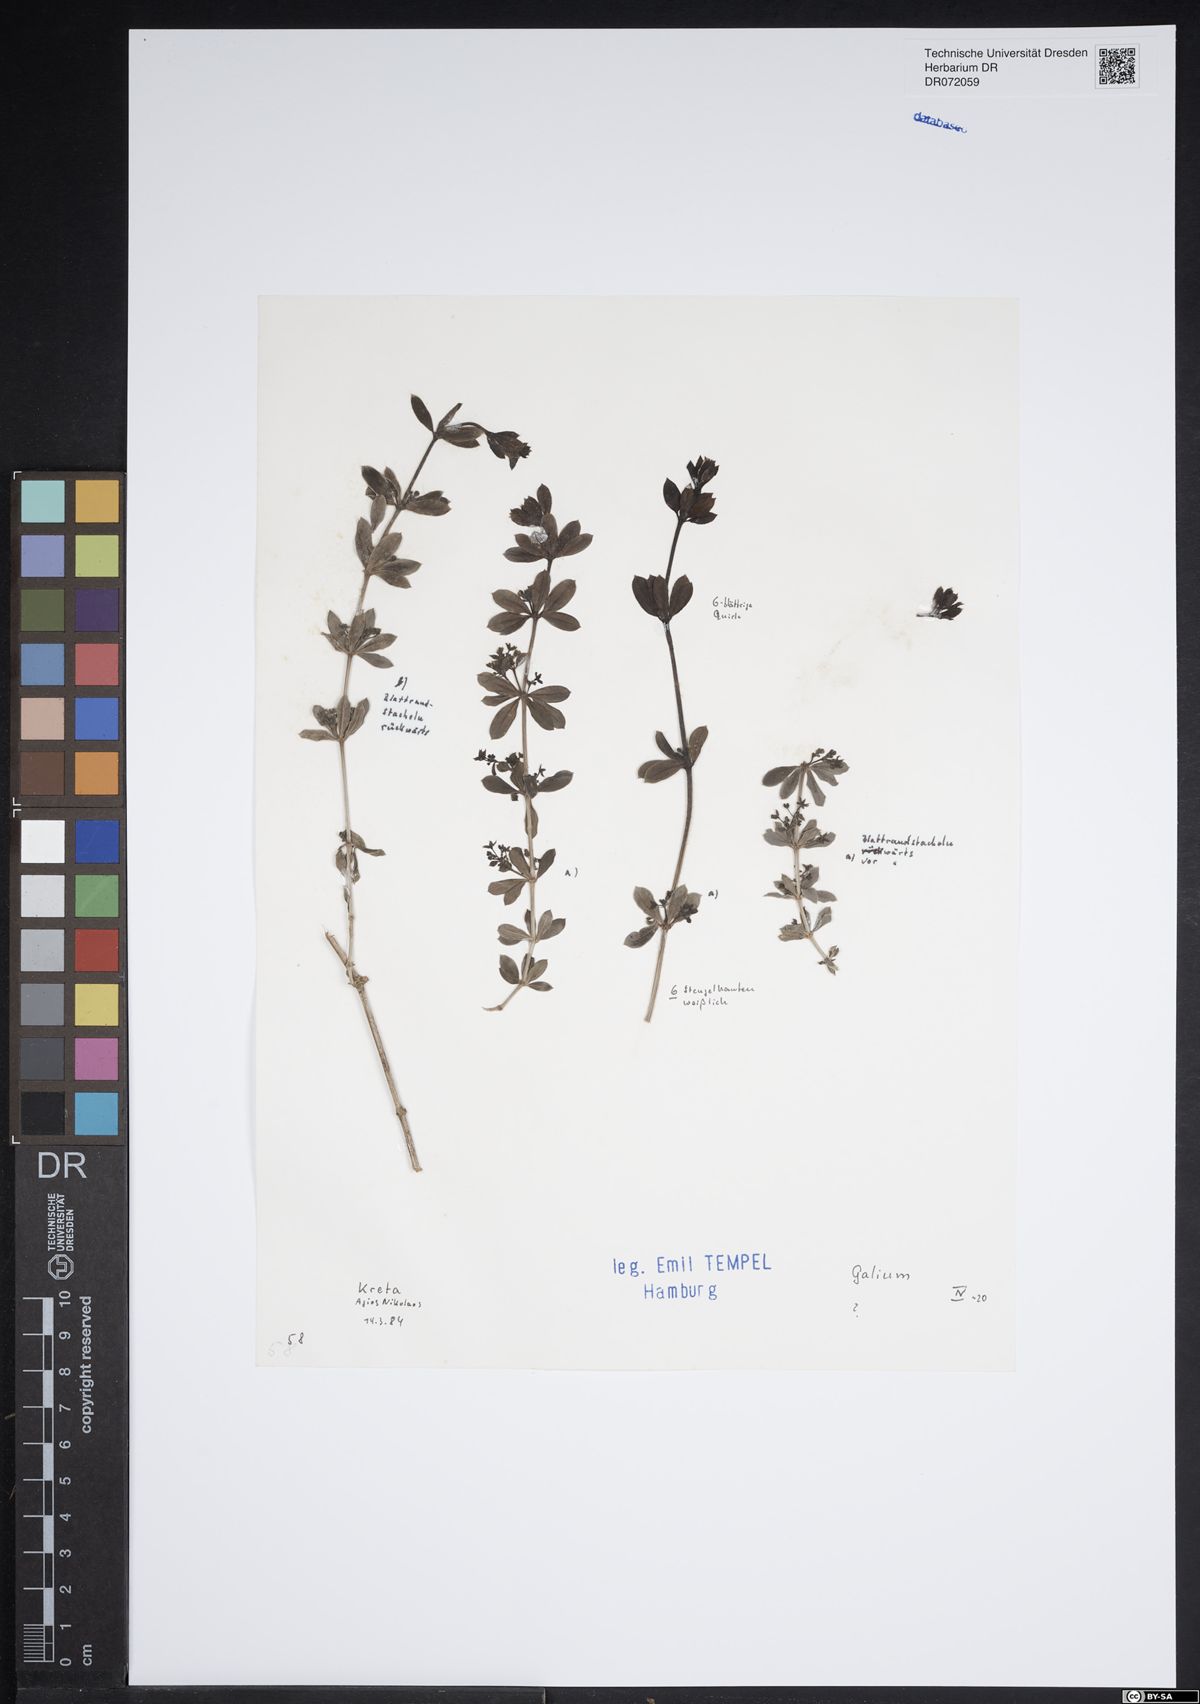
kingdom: Plantae
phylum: Tracheophyta
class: Magnoliopsida
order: Gentianales
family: Rubiaceae
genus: Galium
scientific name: Galium
